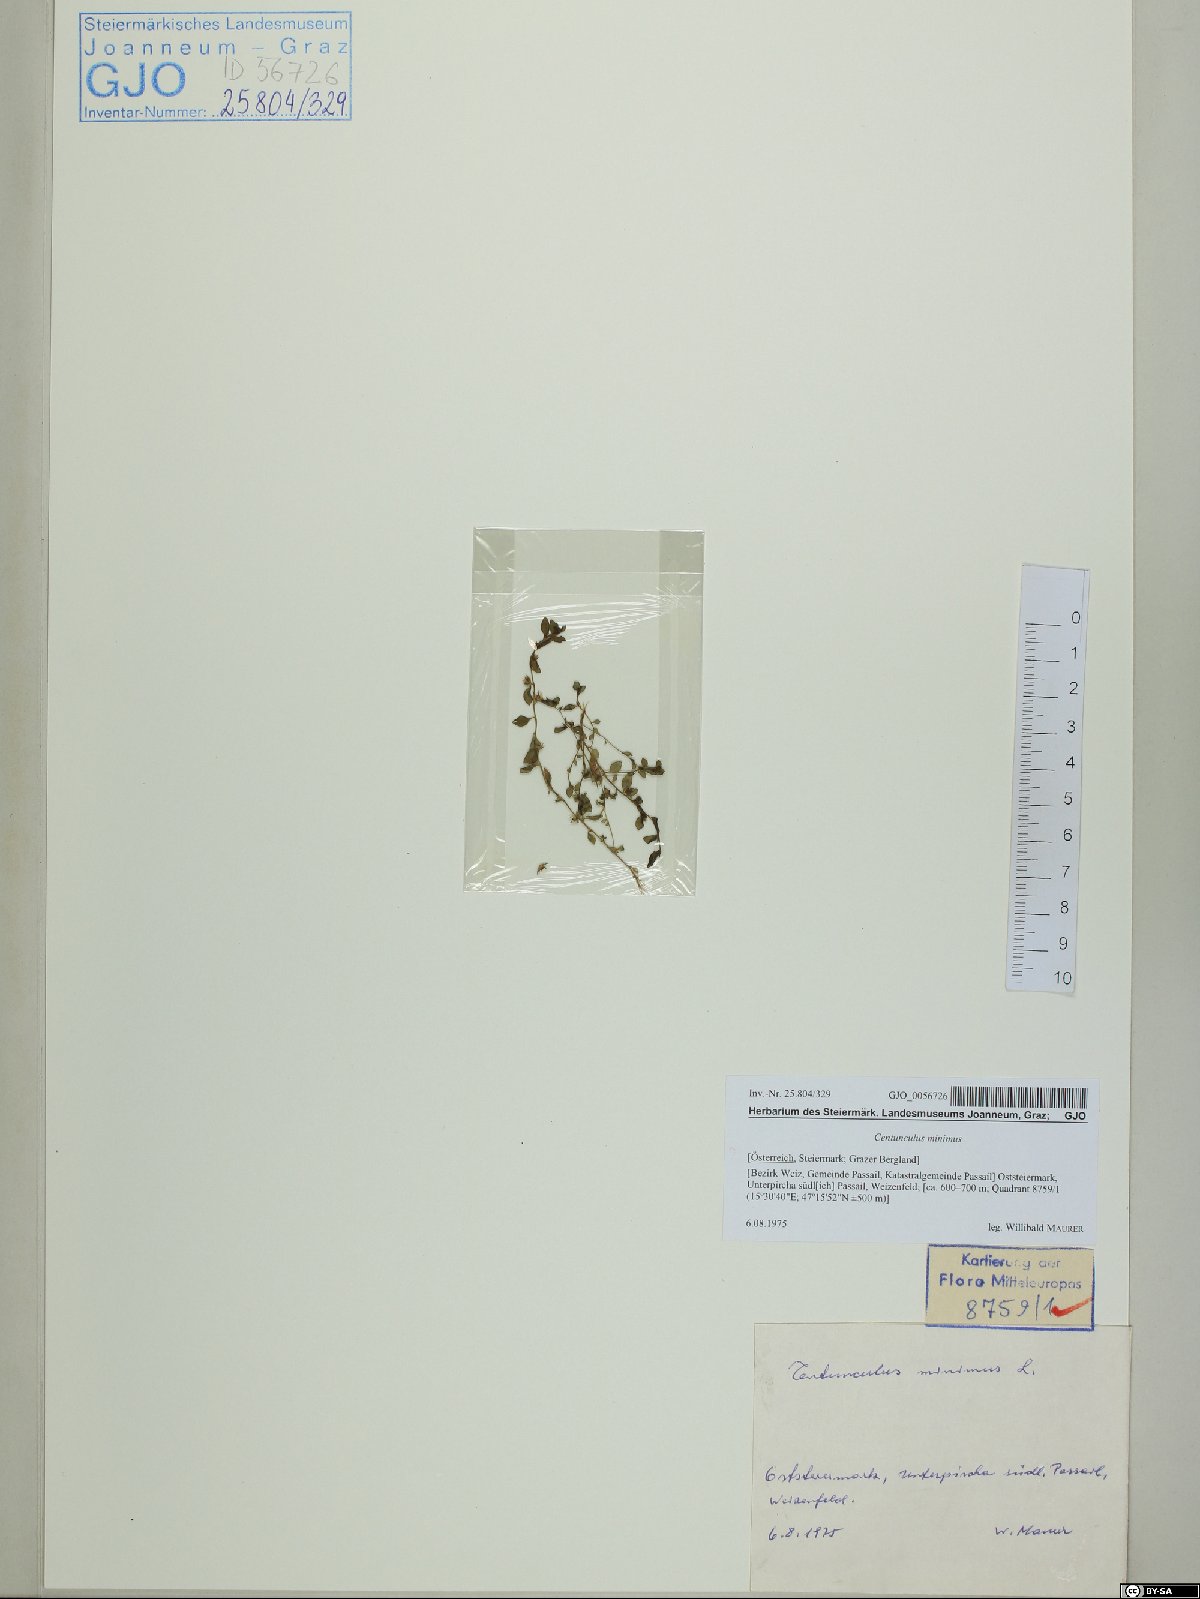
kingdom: Plantae
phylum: Tracheophyta
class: Magnoliopsida
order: Ericales
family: Primulaceae
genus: Lysimachia
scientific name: Lysimachia minima
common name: Chaffweed
